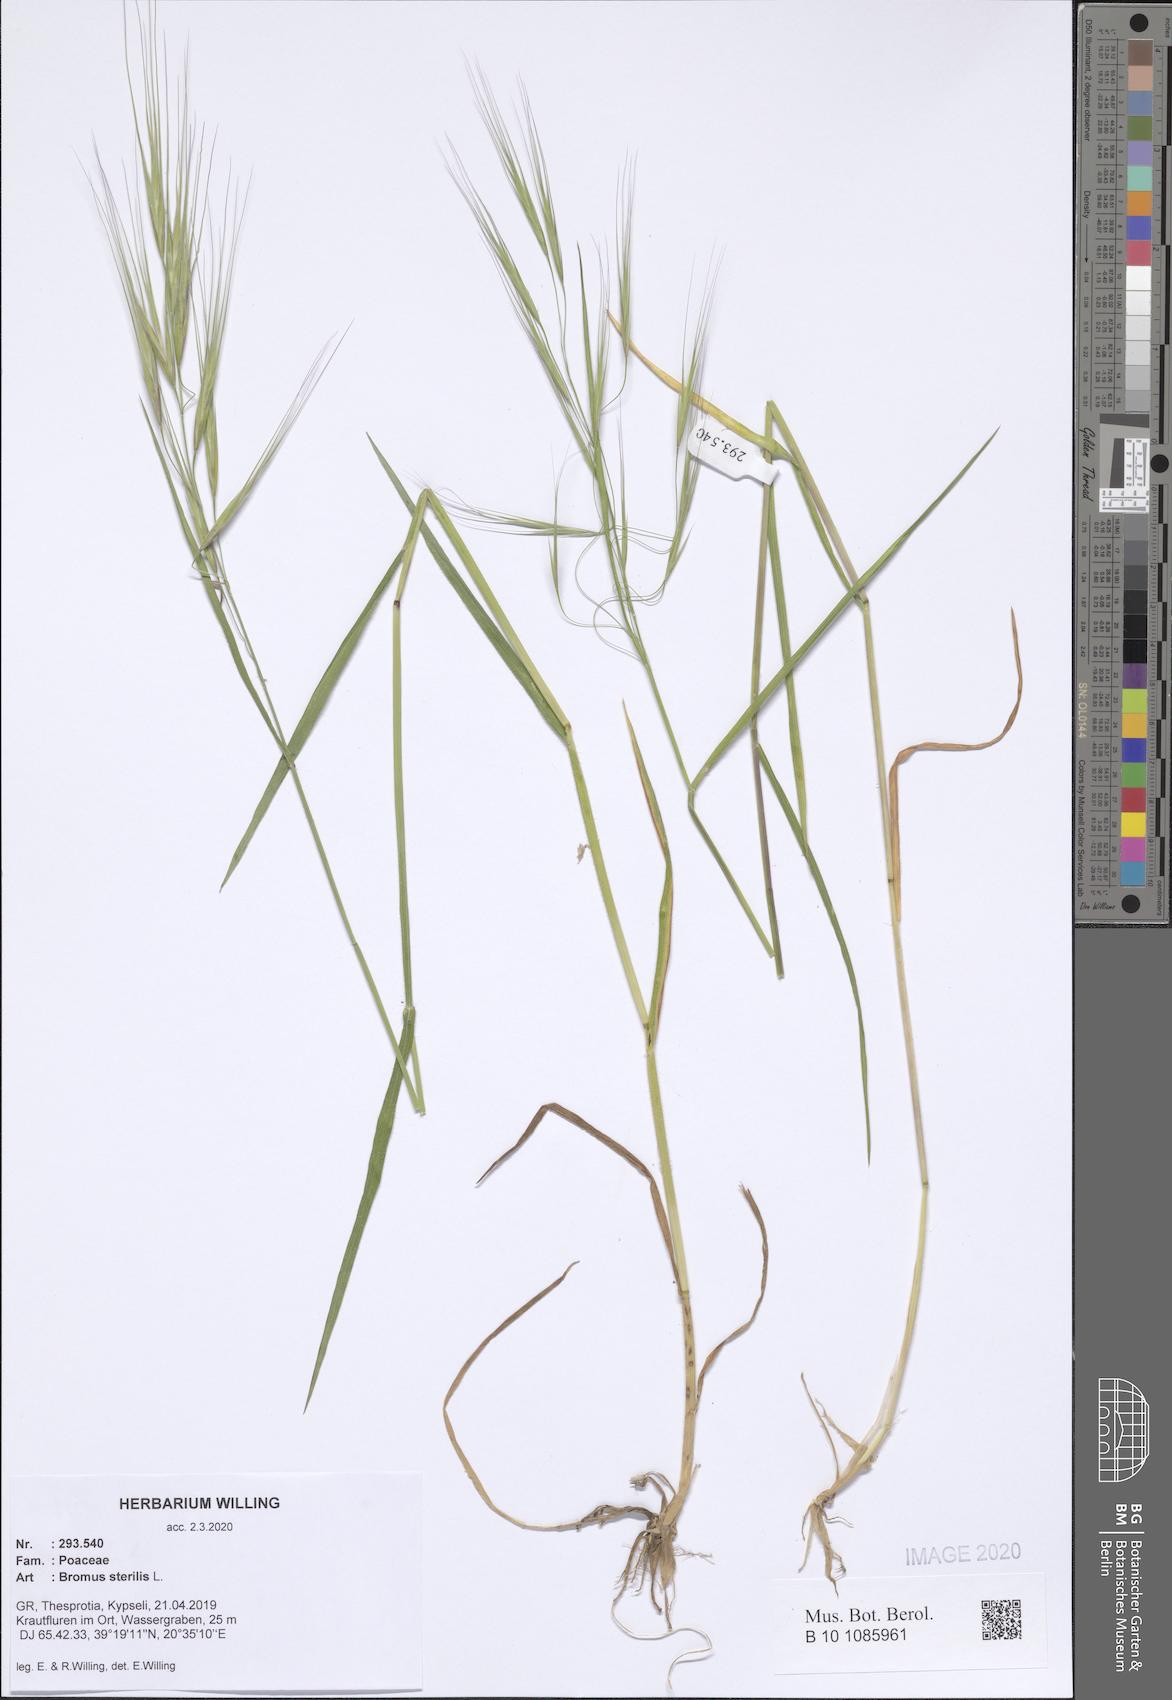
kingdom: Plantae
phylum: Tracheophyta
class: Liliopsida
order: Poales
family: Poaceae
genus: Bromus
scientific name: Bromus sterilis
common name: Poverty brome
